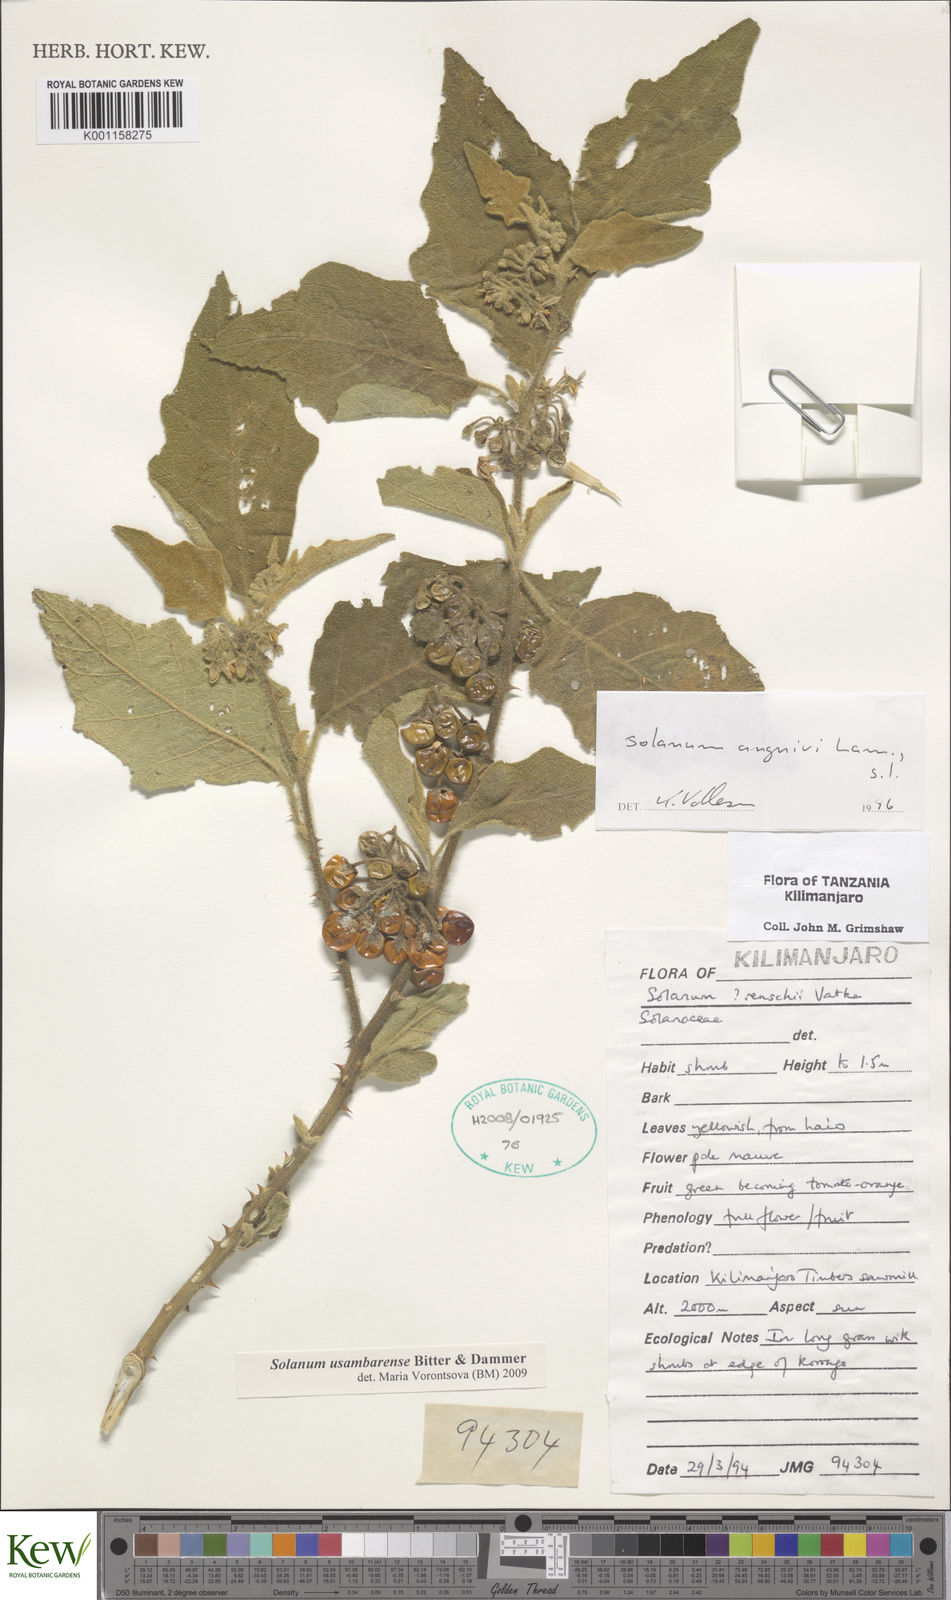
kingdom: Plantae
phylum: Tracheophyta
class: Magnoliopsida
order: Solanales
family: Solanaceae
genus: Solanum
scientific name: Solanum usambarense
